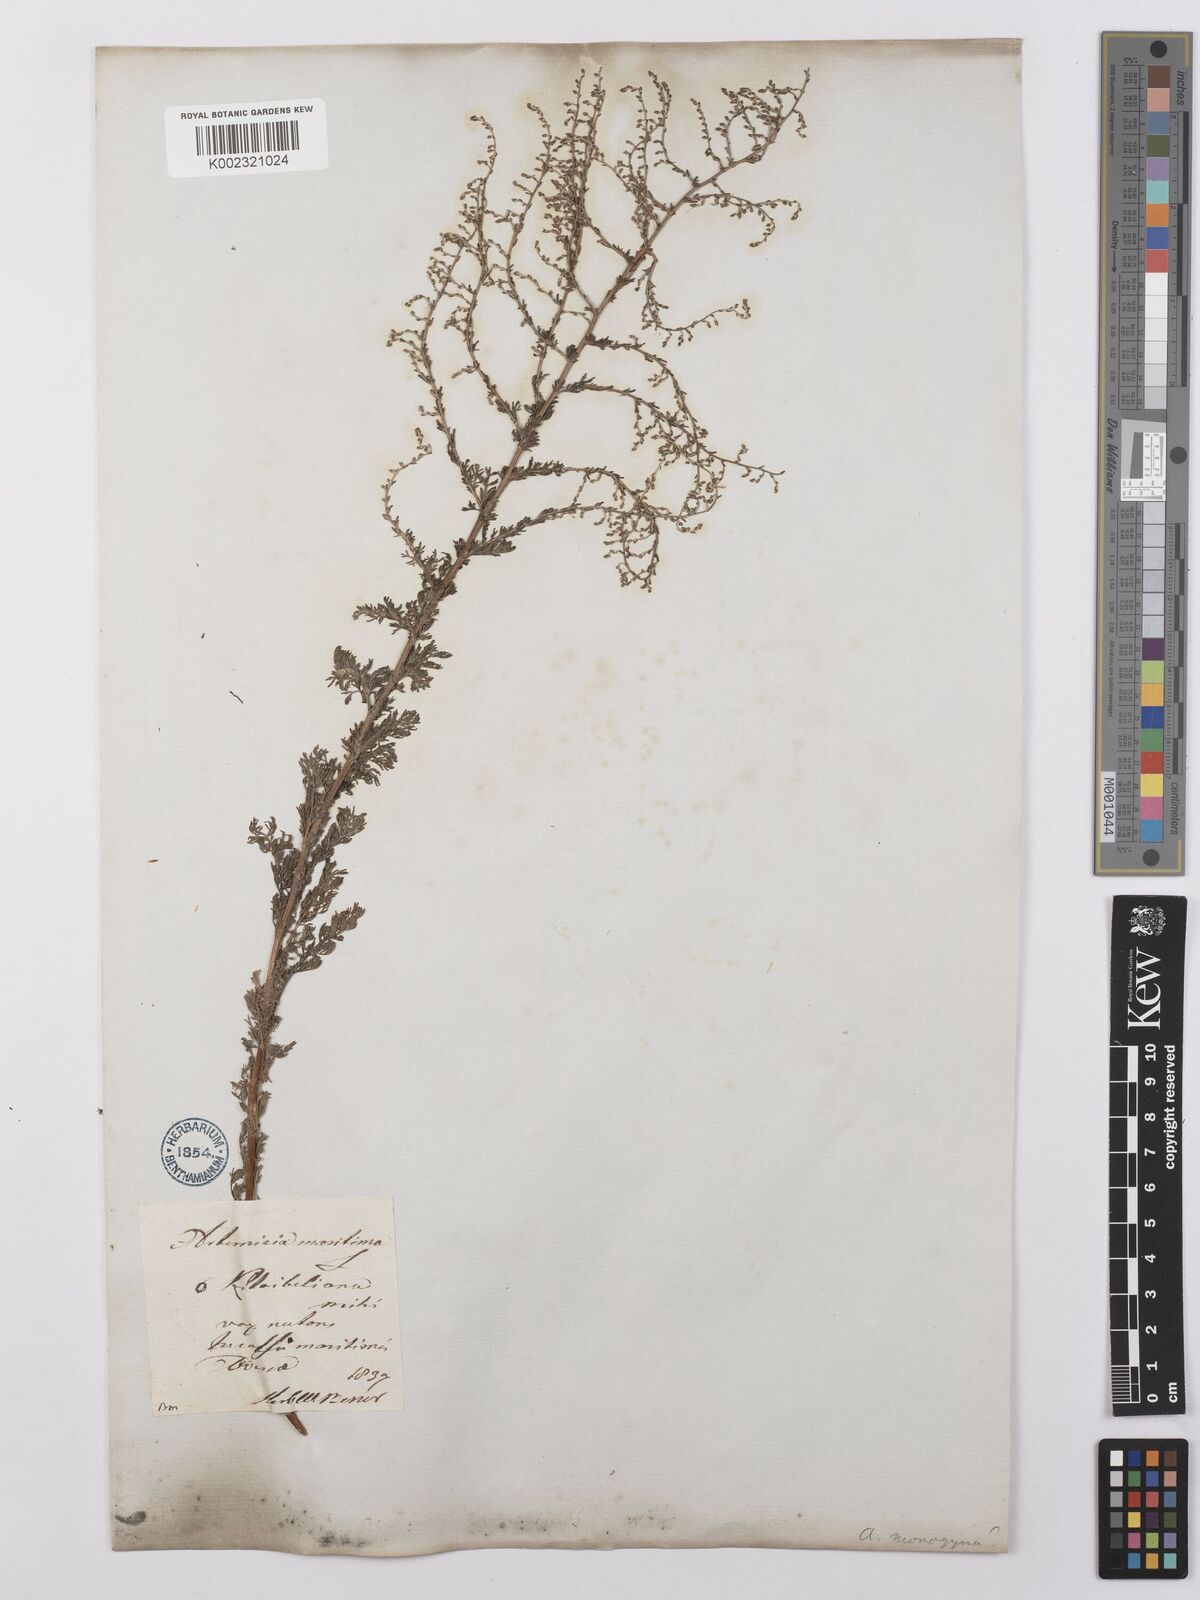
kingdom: Plantae
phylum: Tracheophyta
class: Magnoliopsida
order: Asterales
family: Asteraceae
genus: Artemisia
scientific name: Artemisia santonicum
